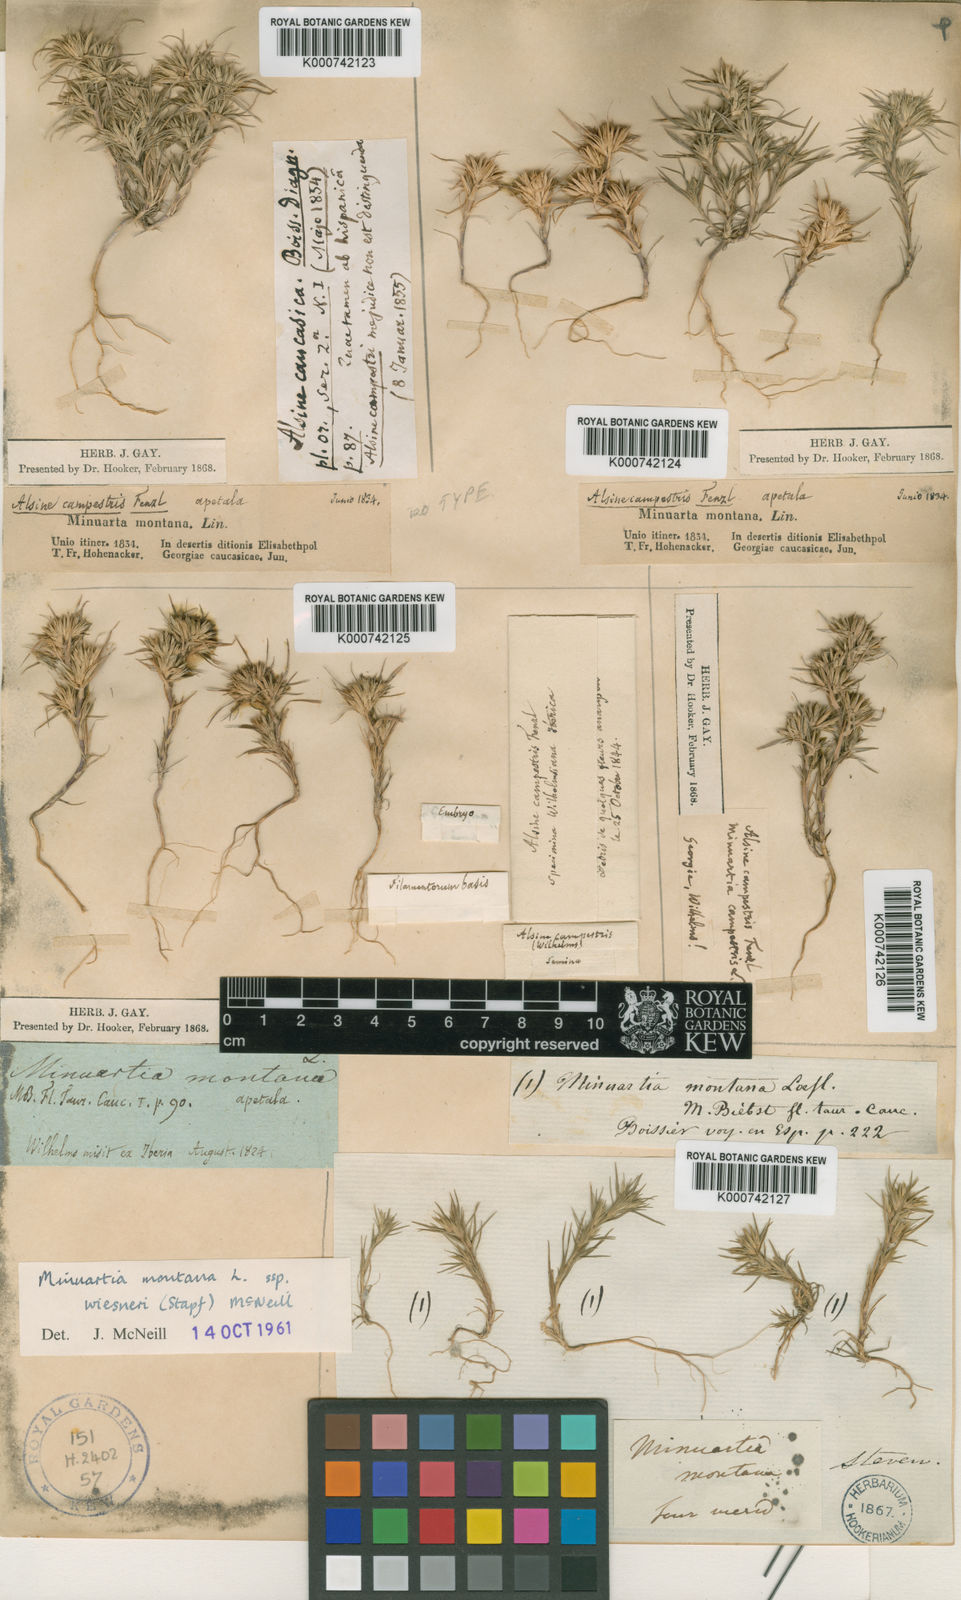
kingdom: Plantae
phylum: Tracheophyta
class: Magnoliopsida
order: Caryophyllales
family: Caryophyllaceae
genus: Minuartia
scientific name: Minuartia montana
